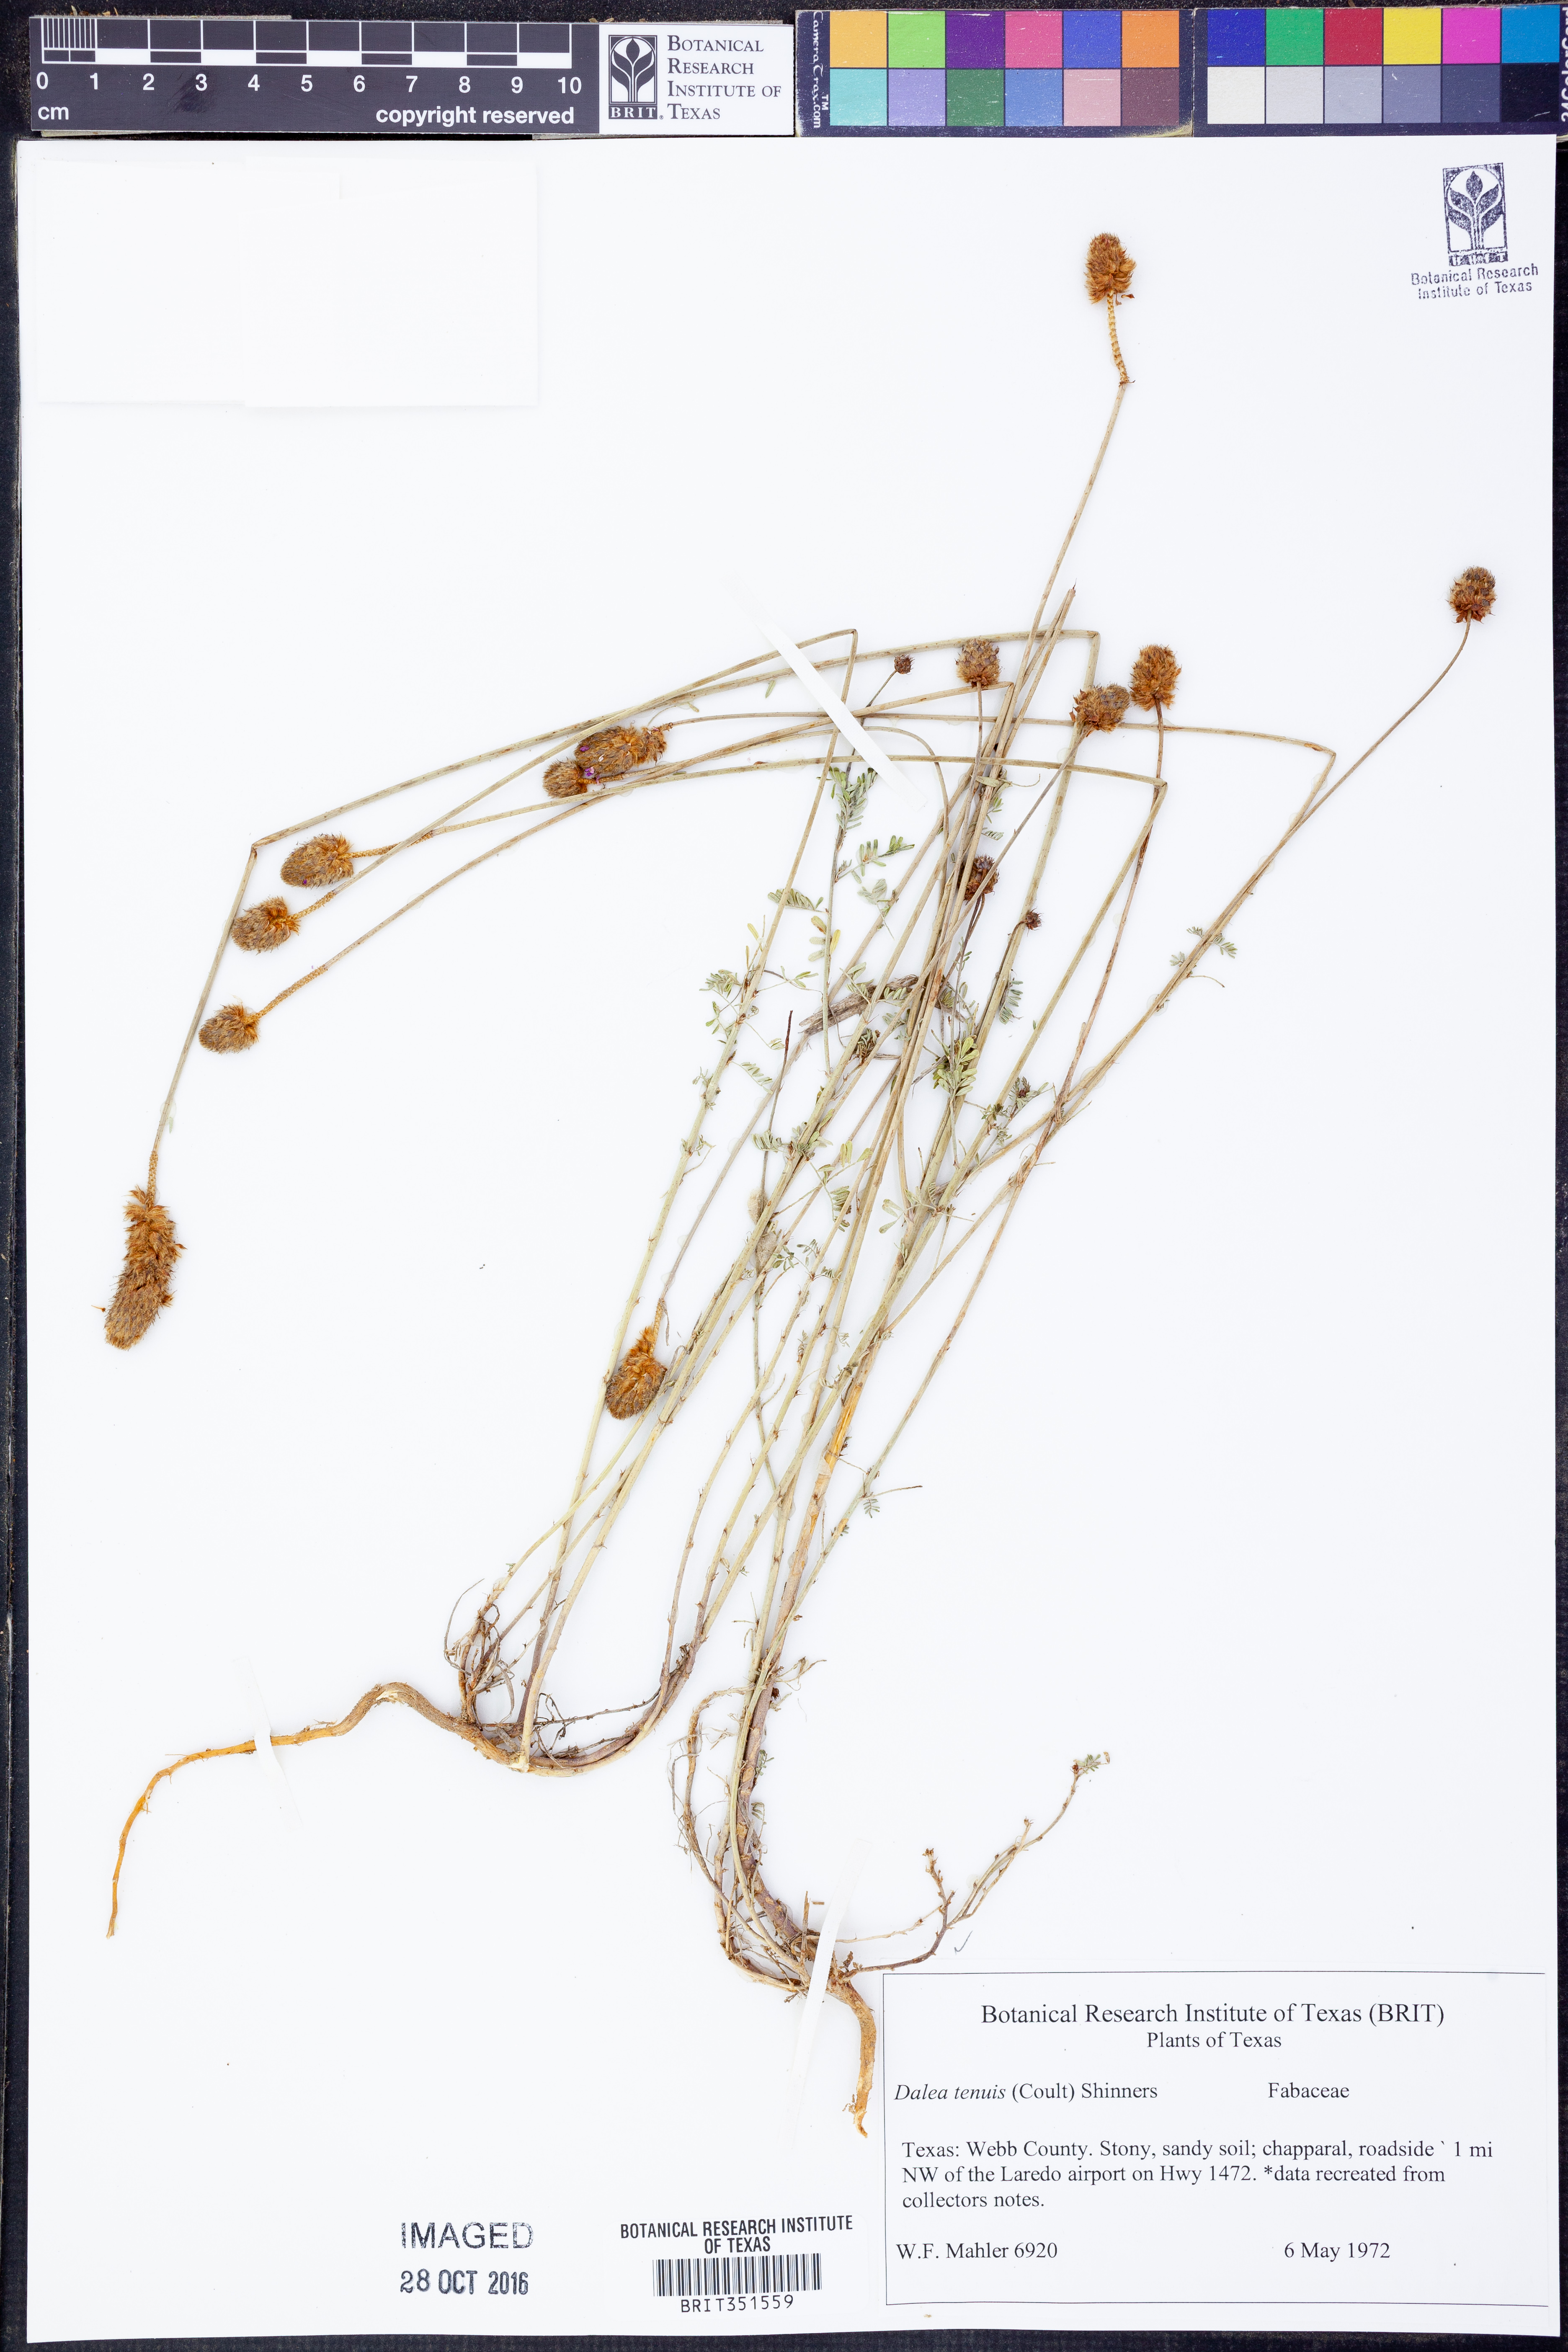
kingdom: Plantae
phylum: Tracheophyta
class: Magnoliopsida
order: Fabales
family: Fabaceae
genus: Dalea
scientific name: Dalea tenuis
